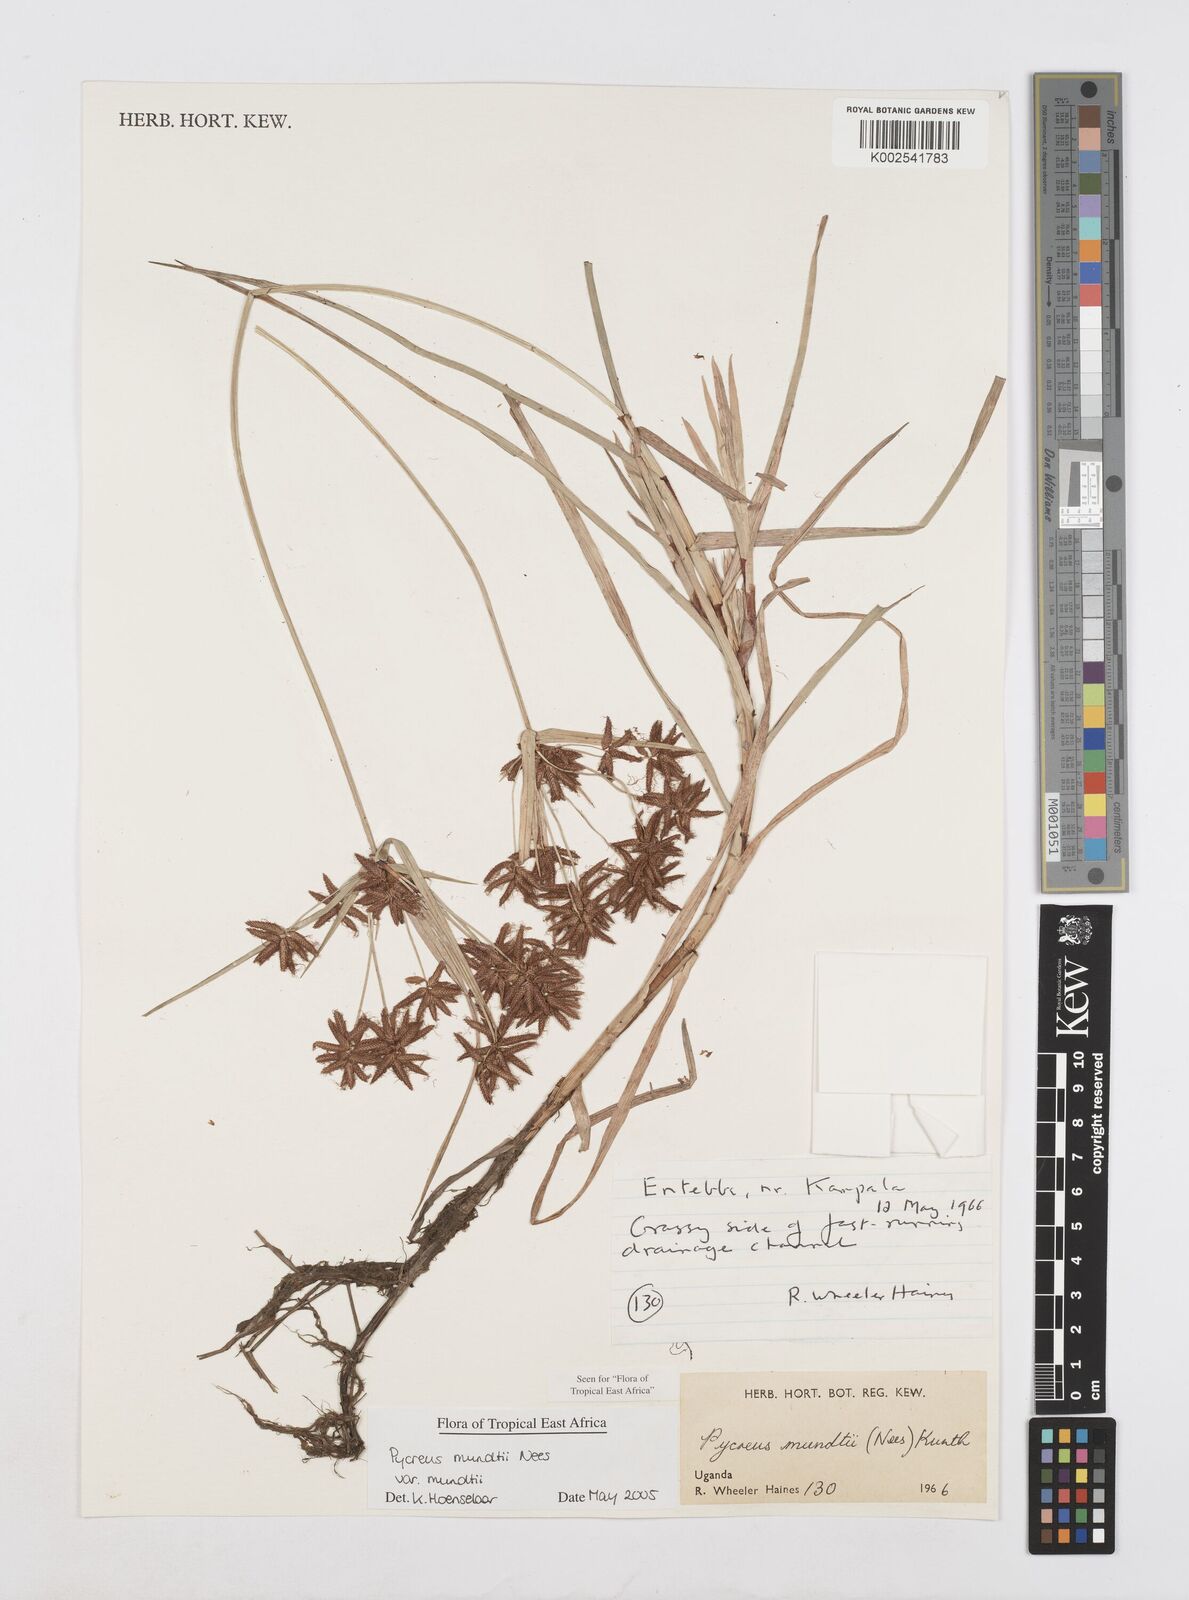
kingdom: Plantae
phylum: Tracheophyta
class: Liliopsida
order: Poales
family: Cyperaceae
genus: Cyperus
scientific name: Cyperus mundii
